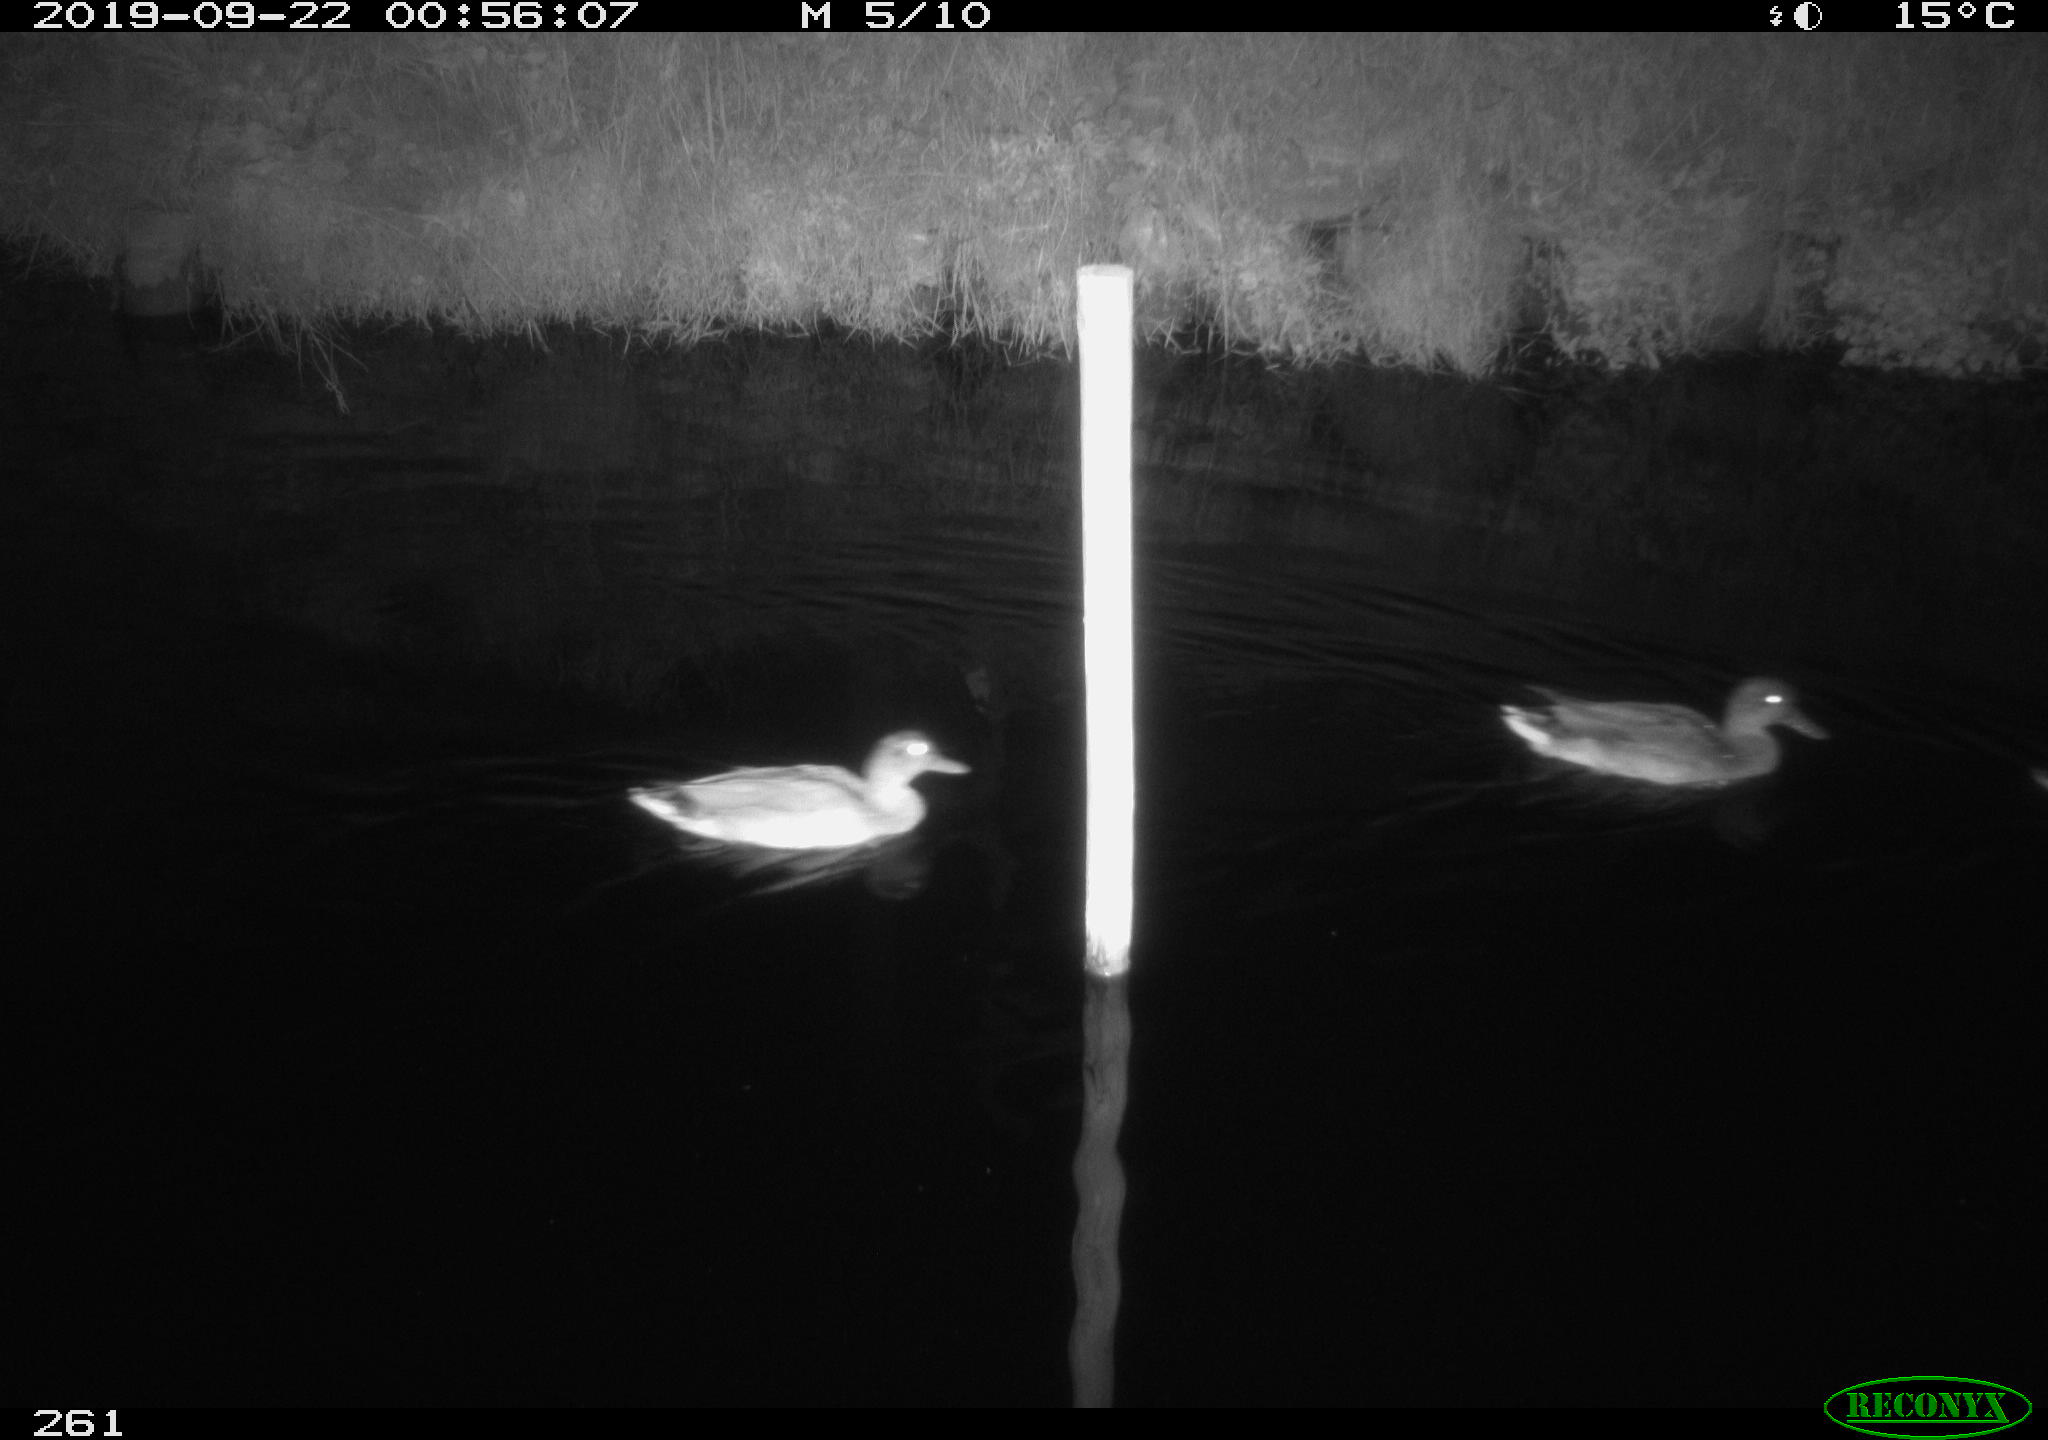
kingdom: Animalia
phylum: Chordata
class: Aves
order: Anseriformes
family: Anatidae
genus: Anas
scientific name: Anas platyrhynchos
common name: Mallard
